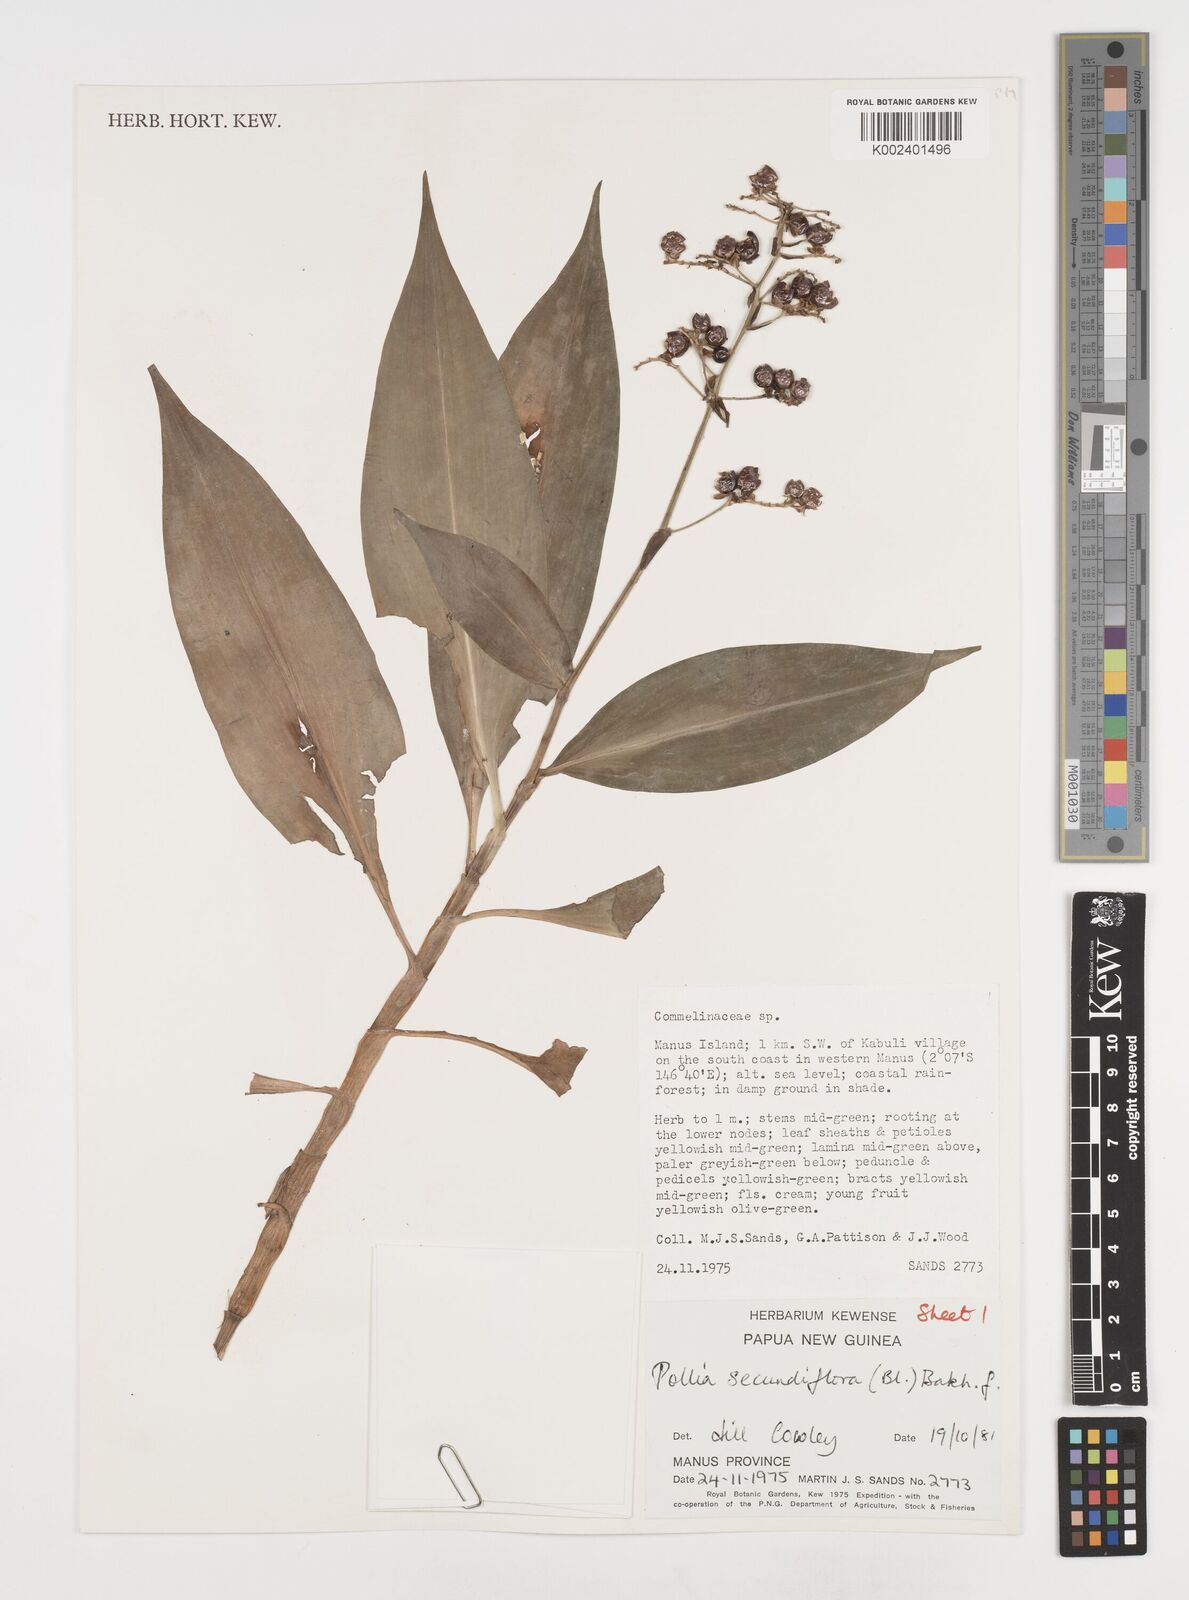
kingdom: Plantae
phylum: Tracheophyta
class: Liliopsida
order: Commelinales
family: Commelinaceae
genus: Pollia
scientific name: Pollia secundiflora
